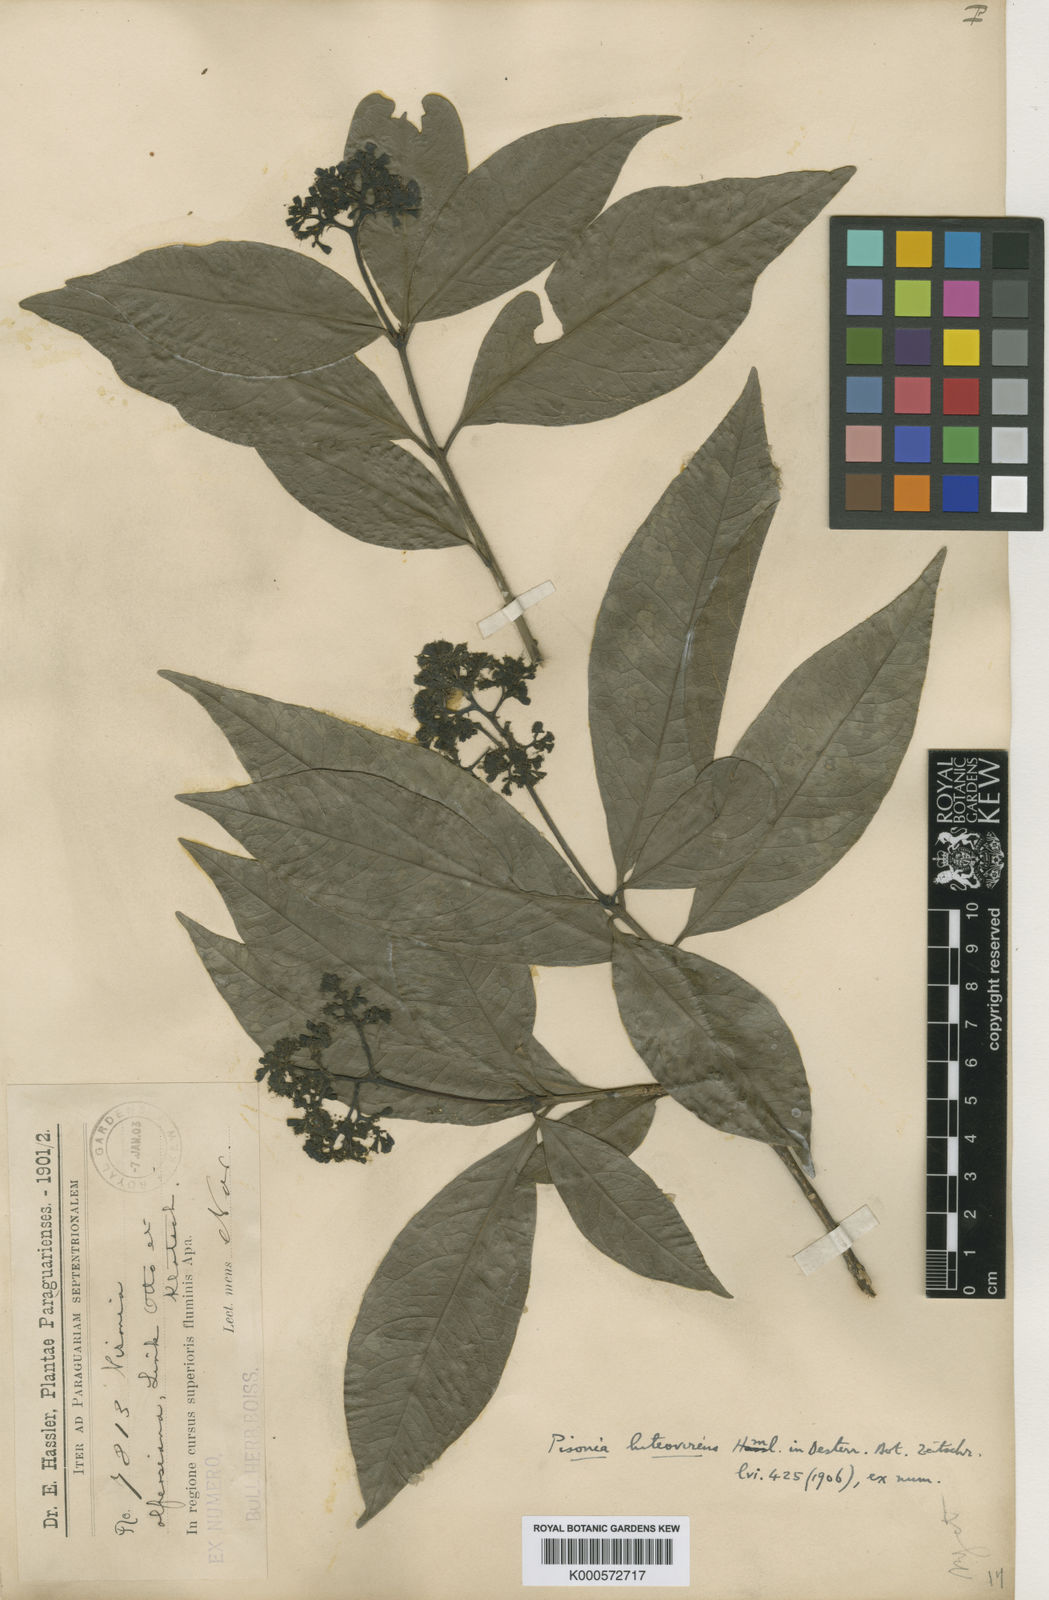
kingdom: Plantae
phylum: Tracheophyta
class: Magnoliopsida
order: Caryophyllales
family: Nyctaginaceae
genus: Guapira
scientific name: Guapira areolata
